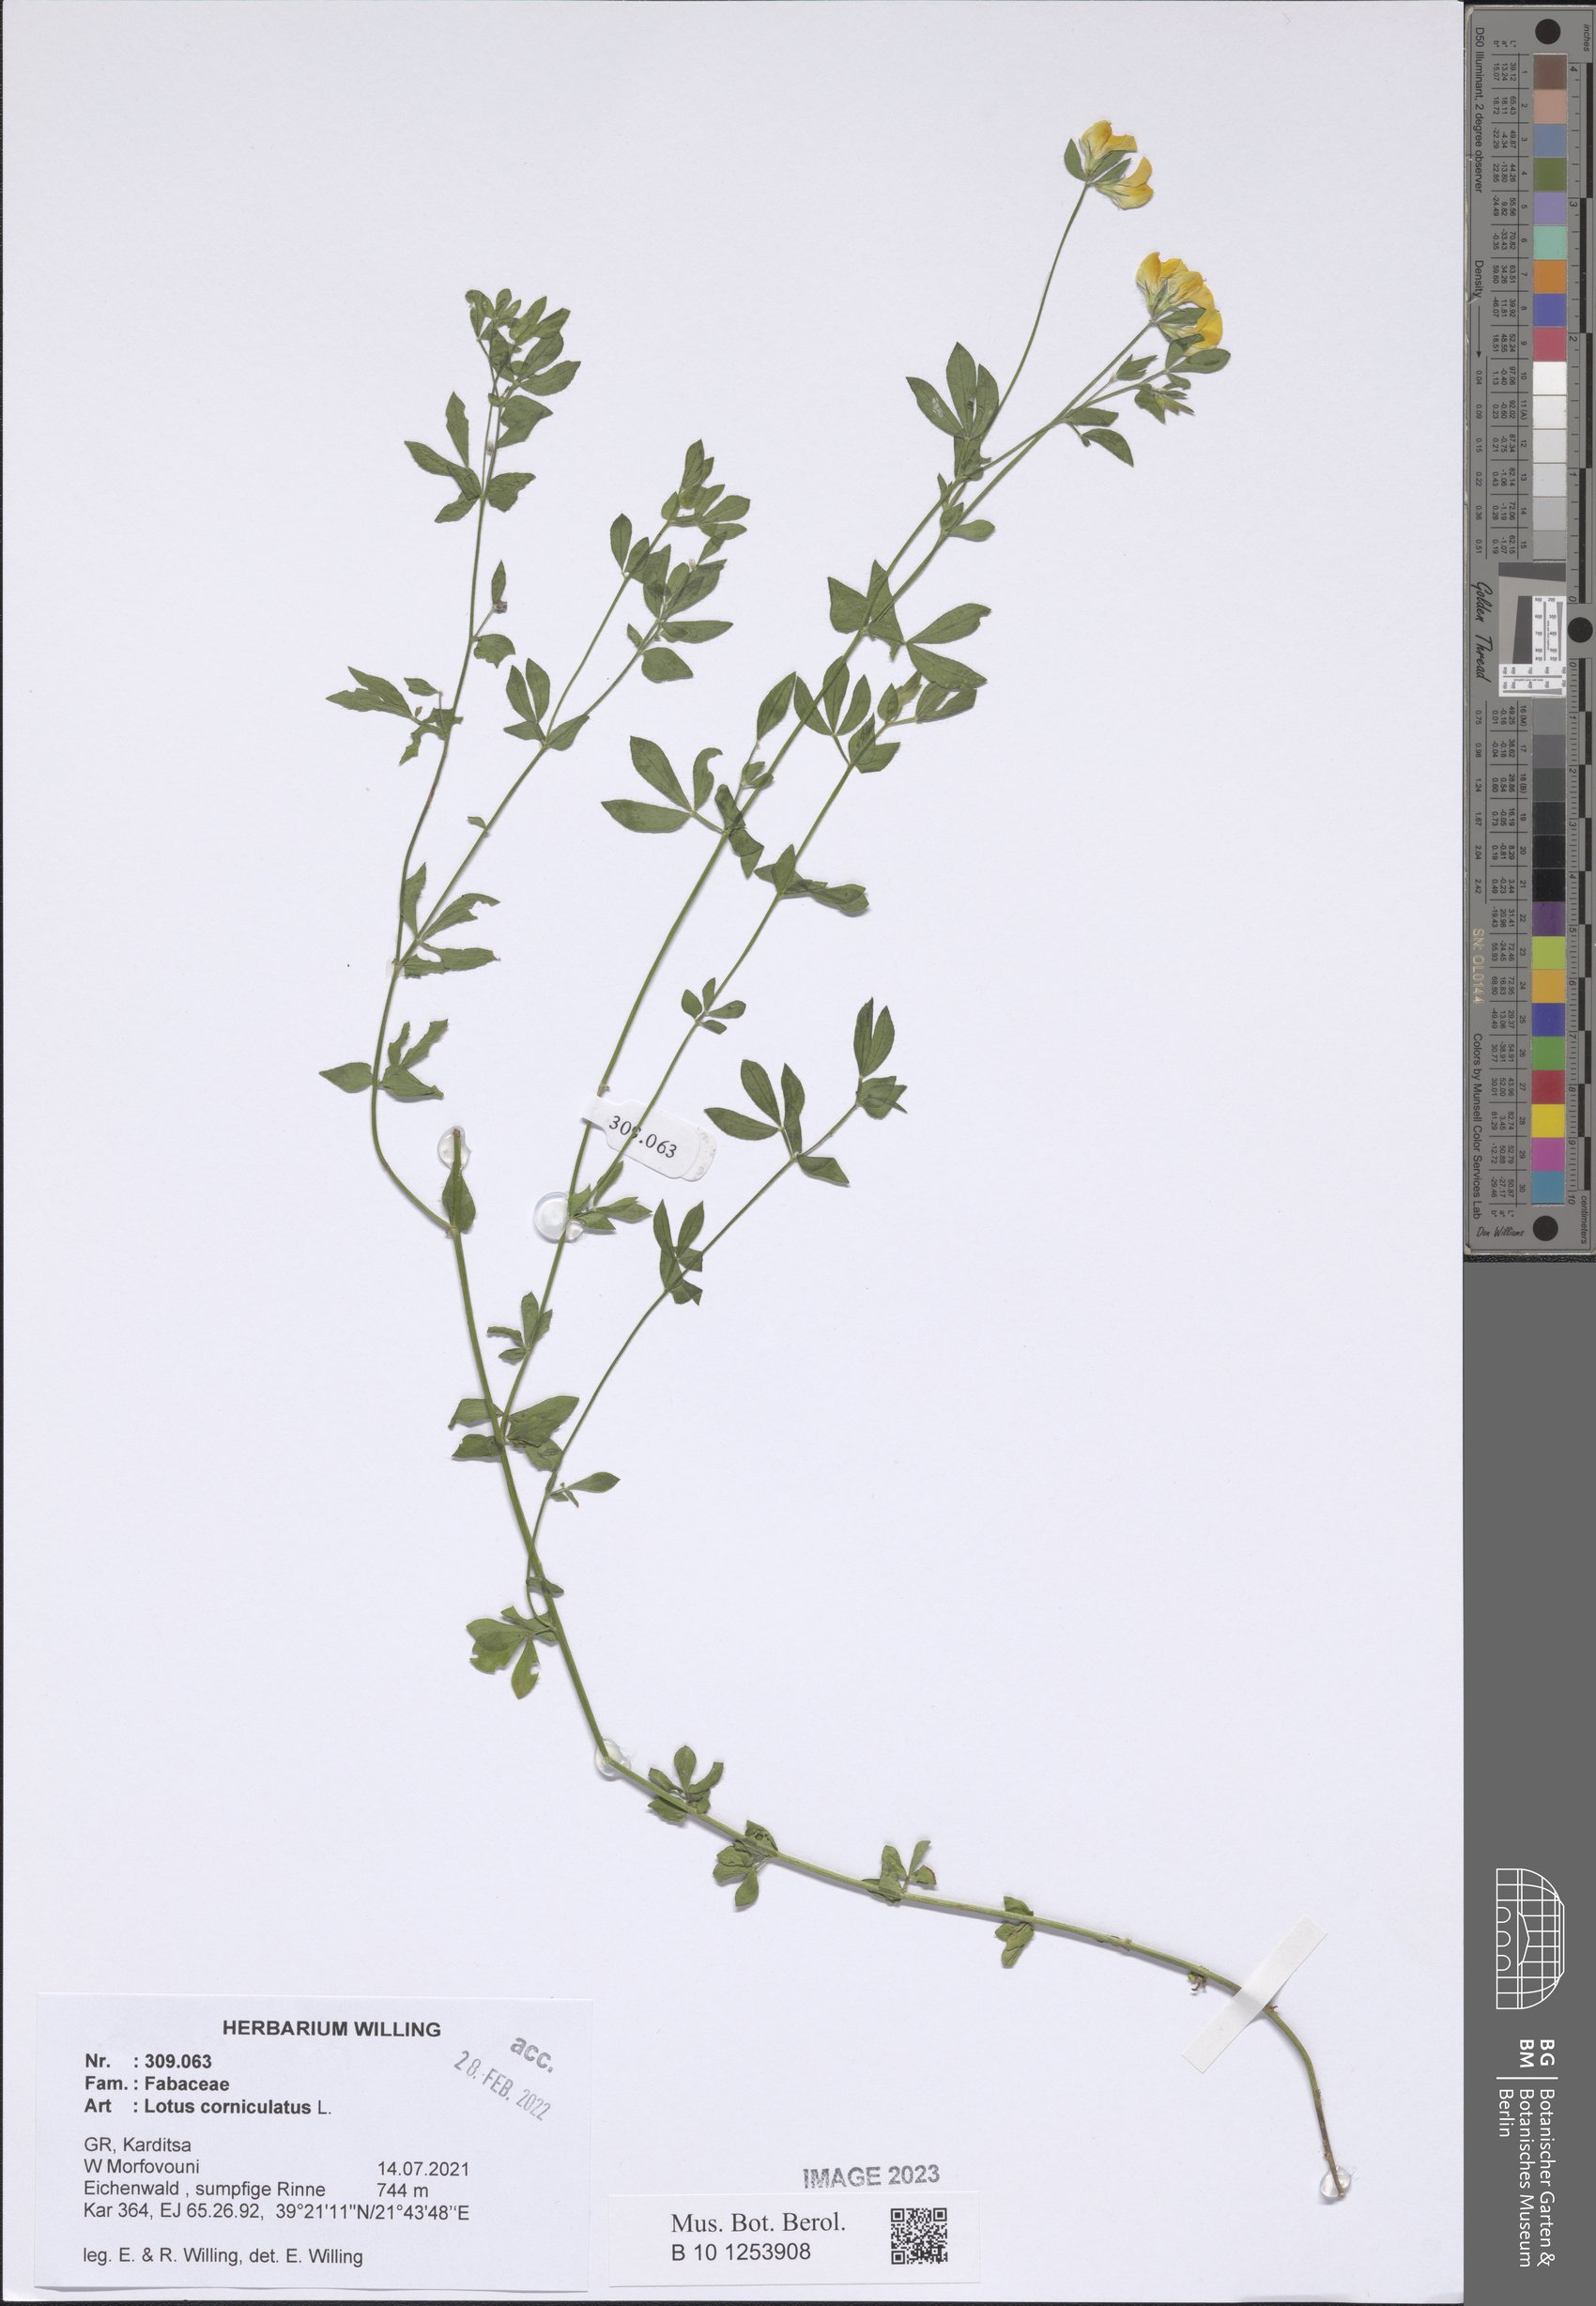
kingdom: Plantae
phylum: Tracheophyta
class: Magnoliopsida
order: Fabales
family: Fabaceae
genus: Lotus
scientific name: Lotus corniculatus
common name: Common bird's-foot-trefoil
